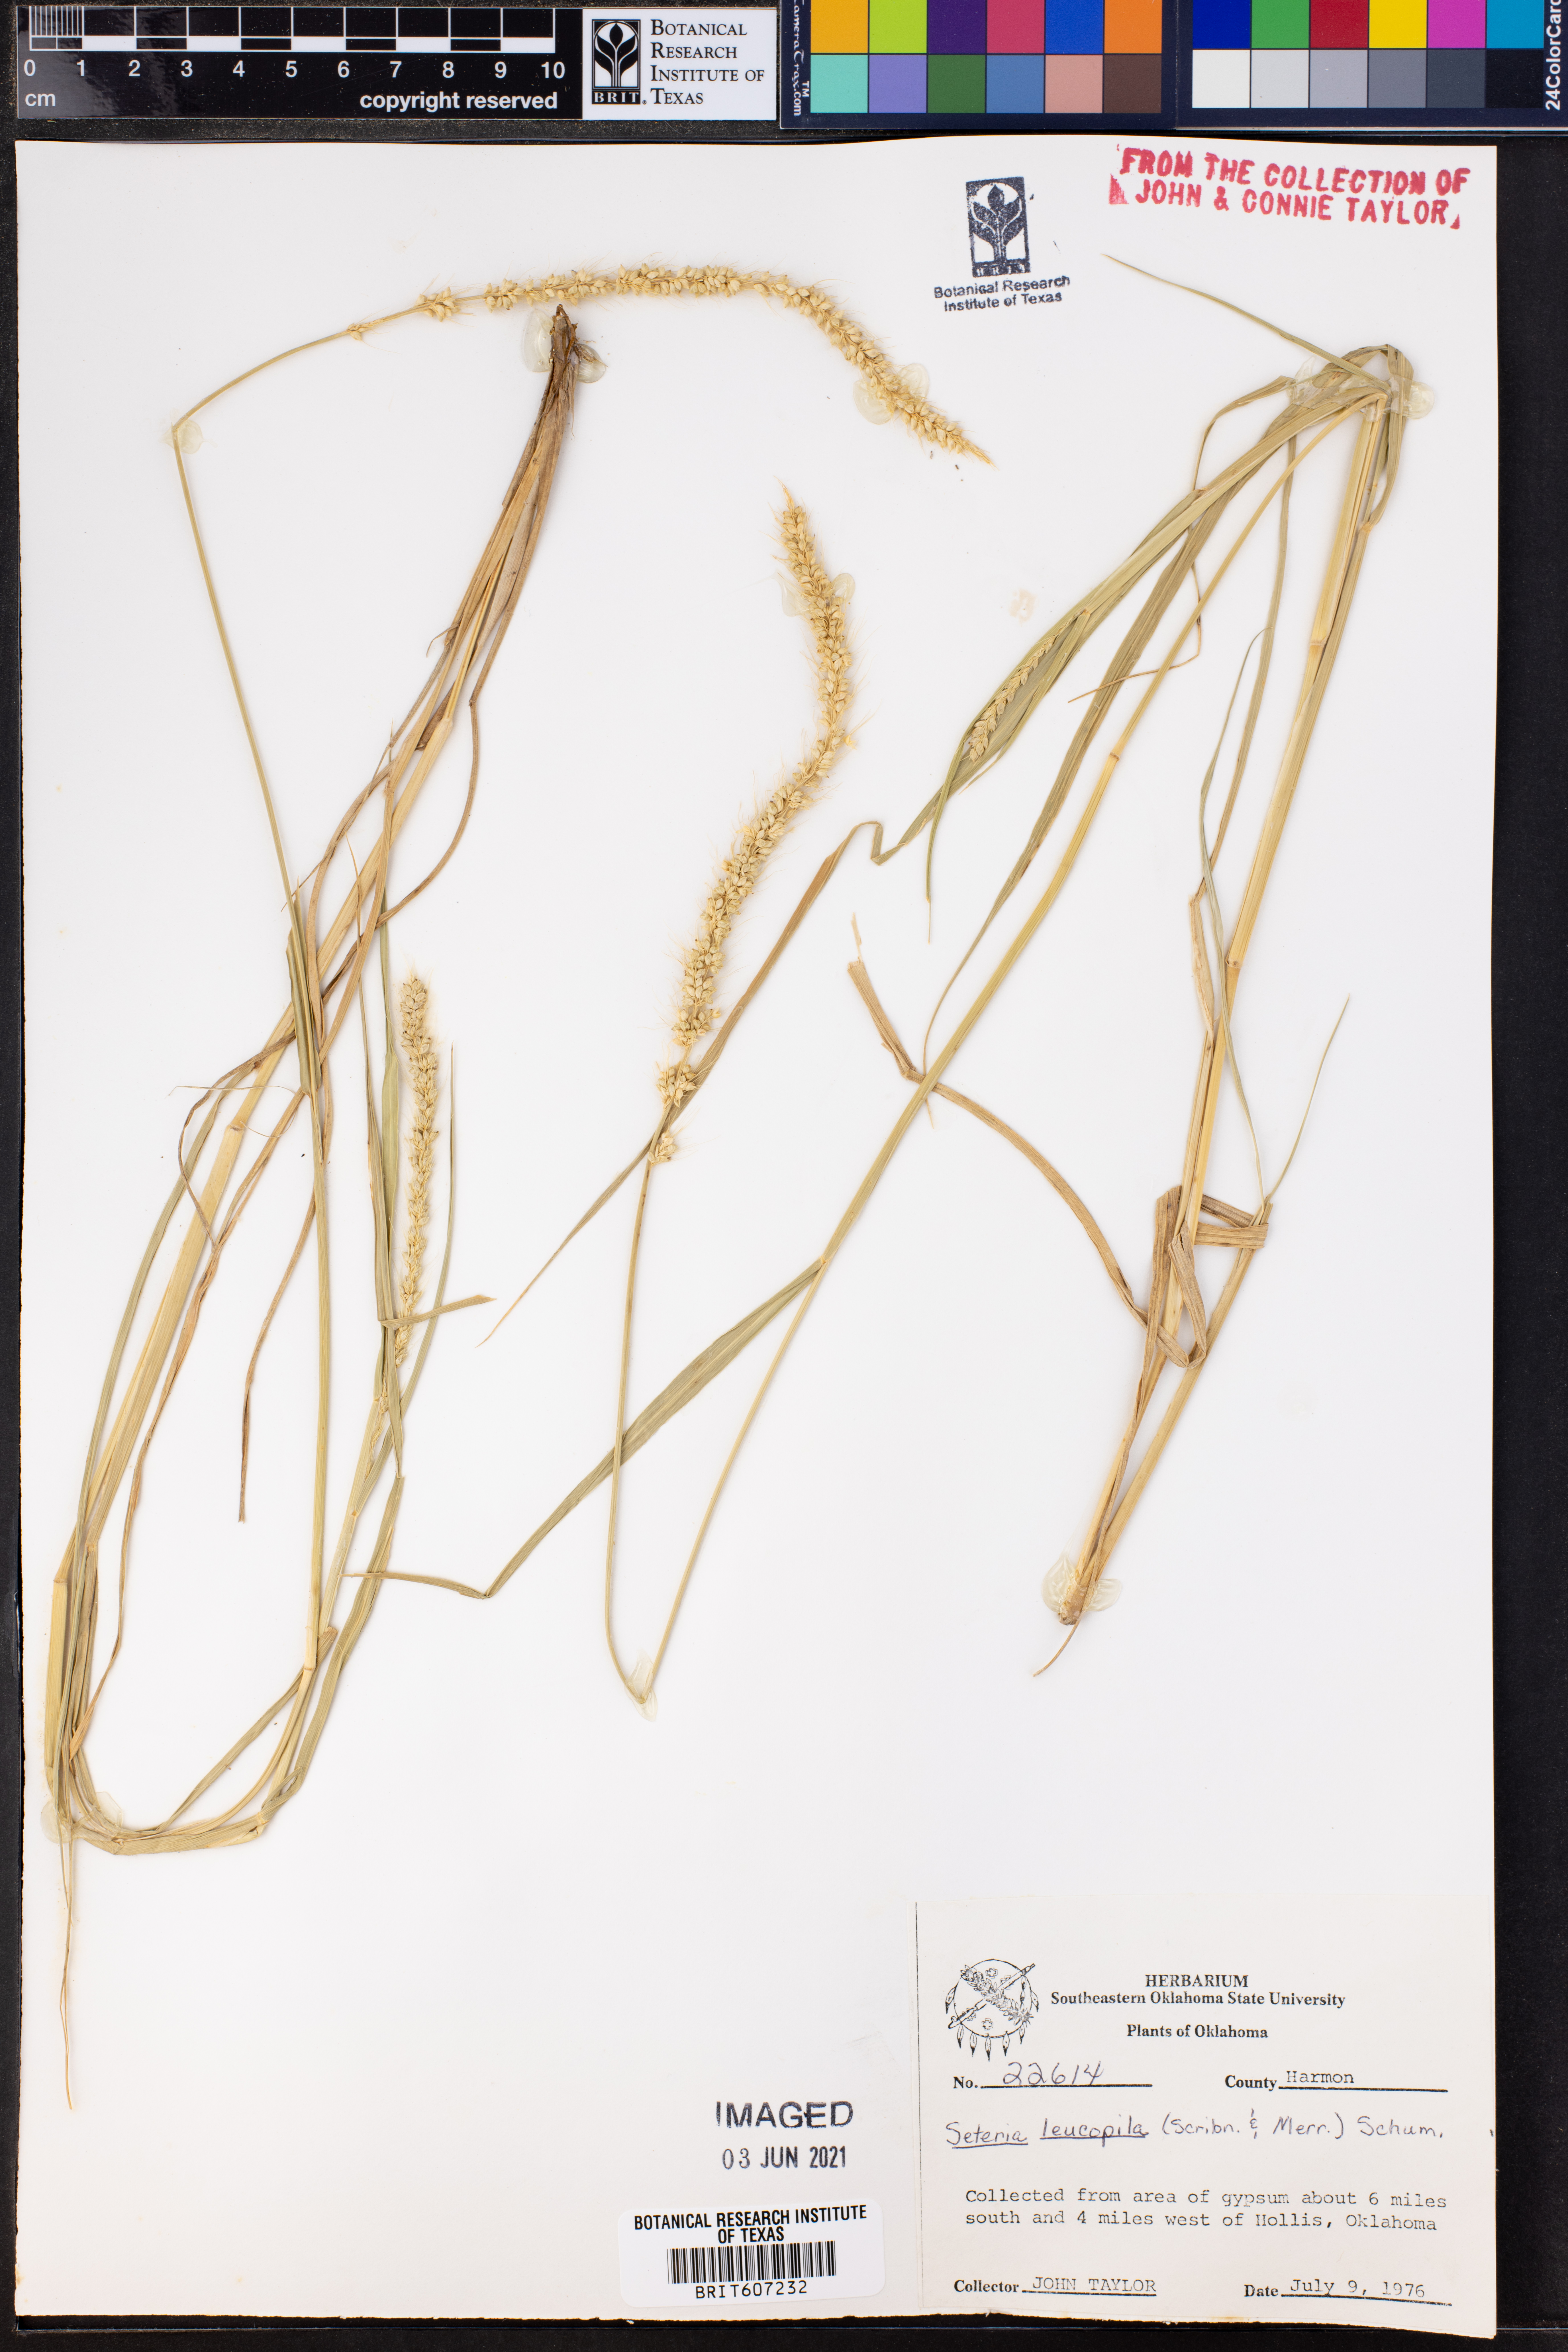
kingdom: Plantae
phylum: Tracheophyta
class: Liliopsida
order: Poales
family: Poaceae
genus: Setaria
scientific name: Setaria leucopila
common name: Plains bristle grass
